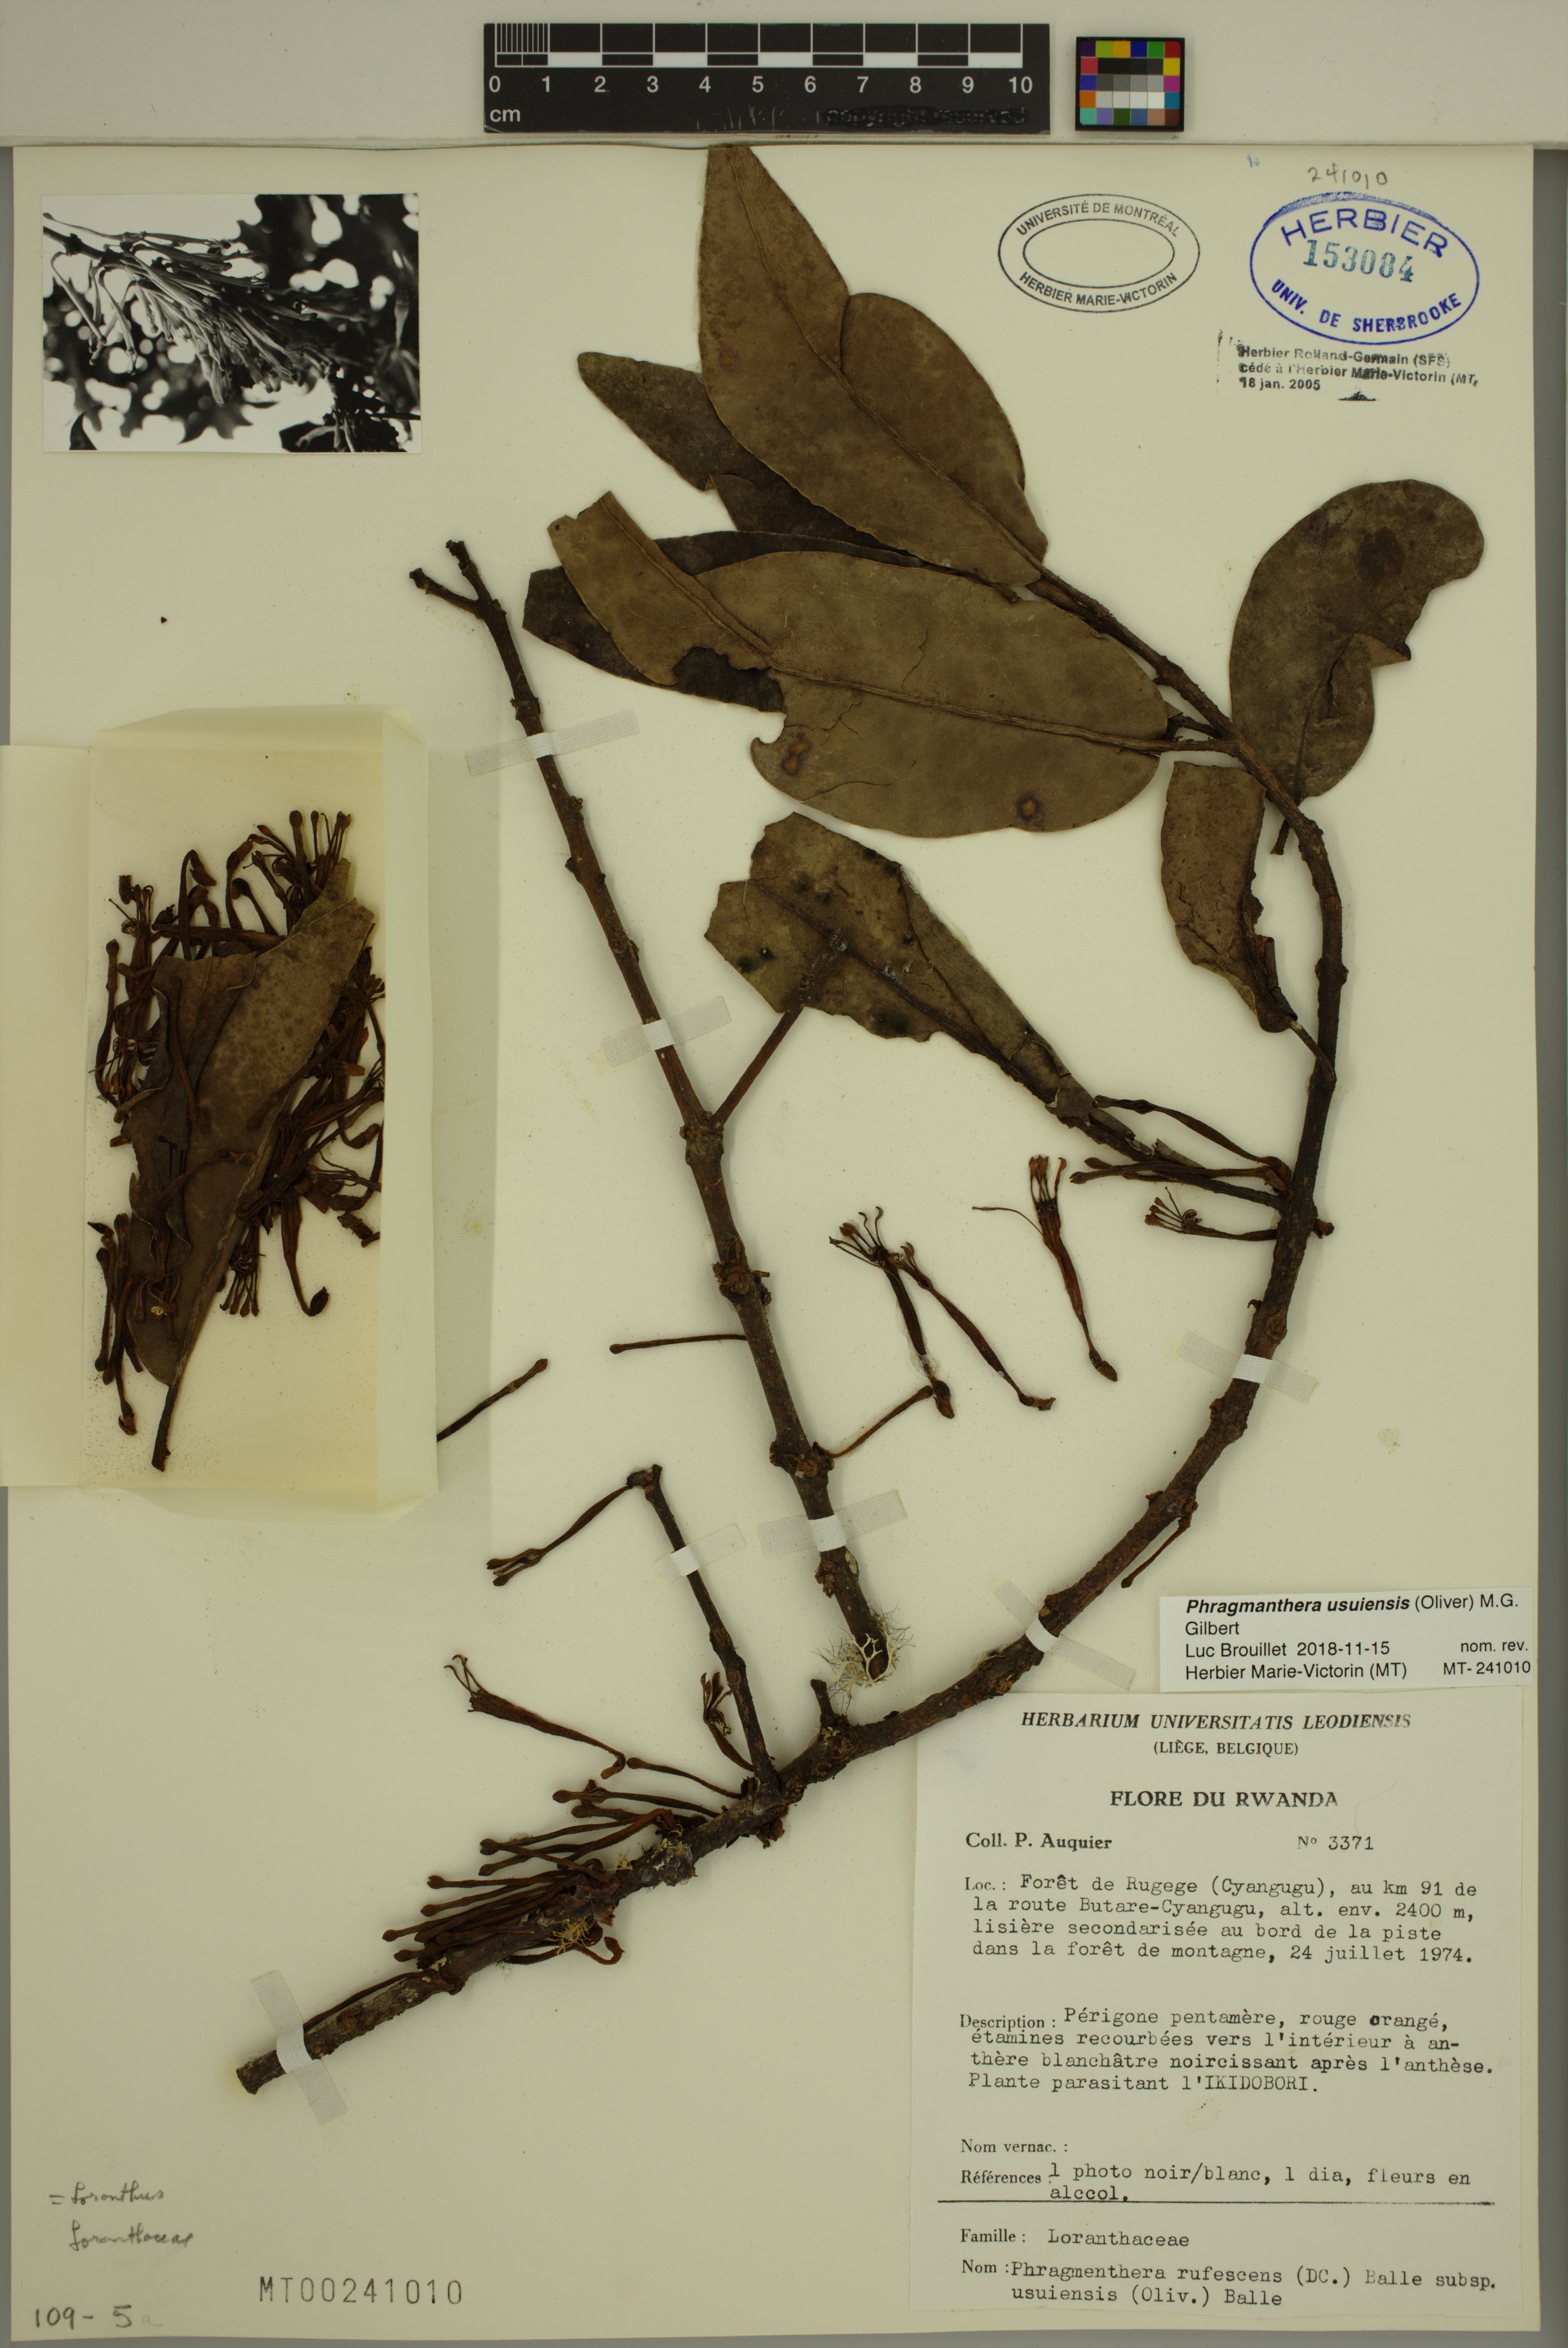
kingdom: Plantae
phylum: Tracheophyta
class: Magnoliopsida
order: Santalales
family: Loranthaceae
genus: Phragmanthera
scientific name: Phragmanthera usuiensis
